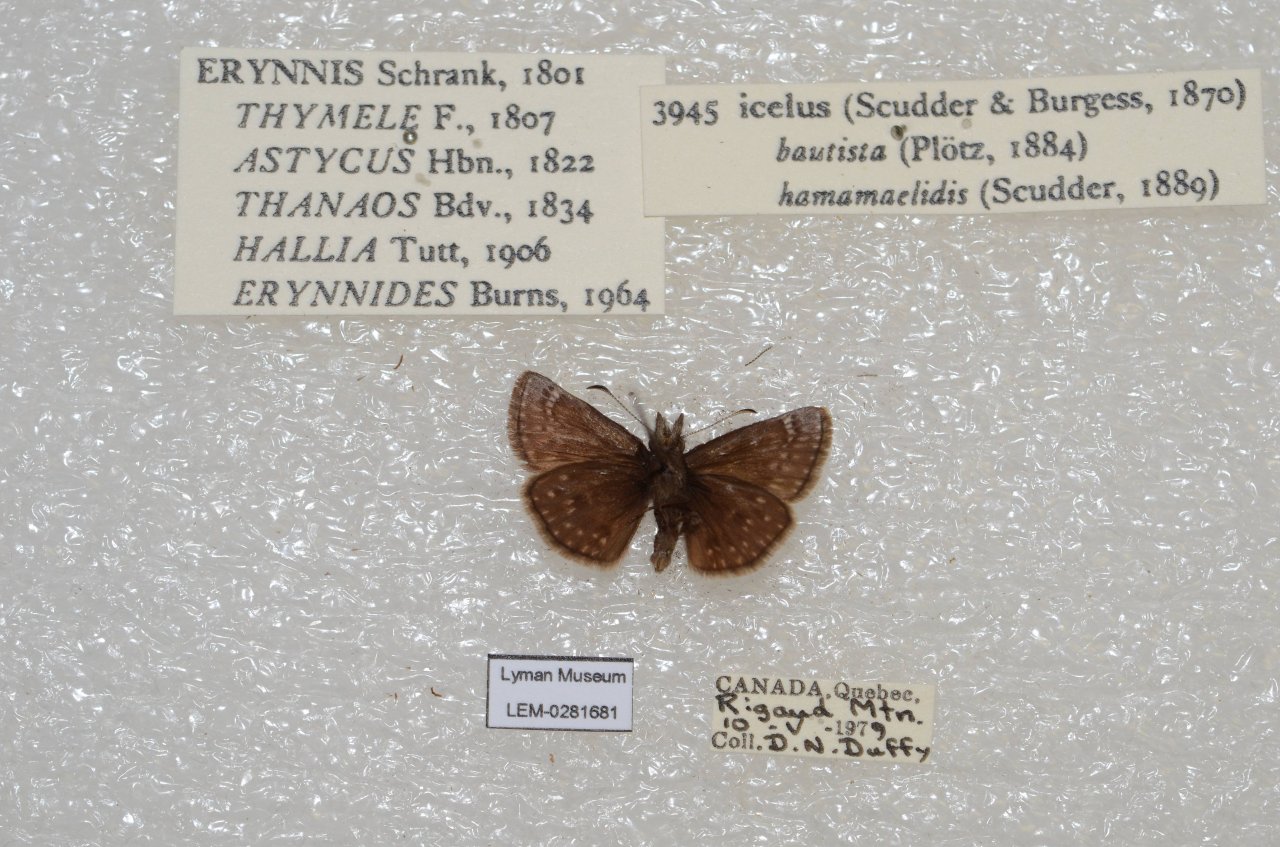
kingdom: Animalia
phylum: Arthropoda
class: Insecta
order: Lepidoptera
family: Hesperiidae
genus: Erynnis
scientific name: Erynnis icelus
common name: Dreamy Duskywing
